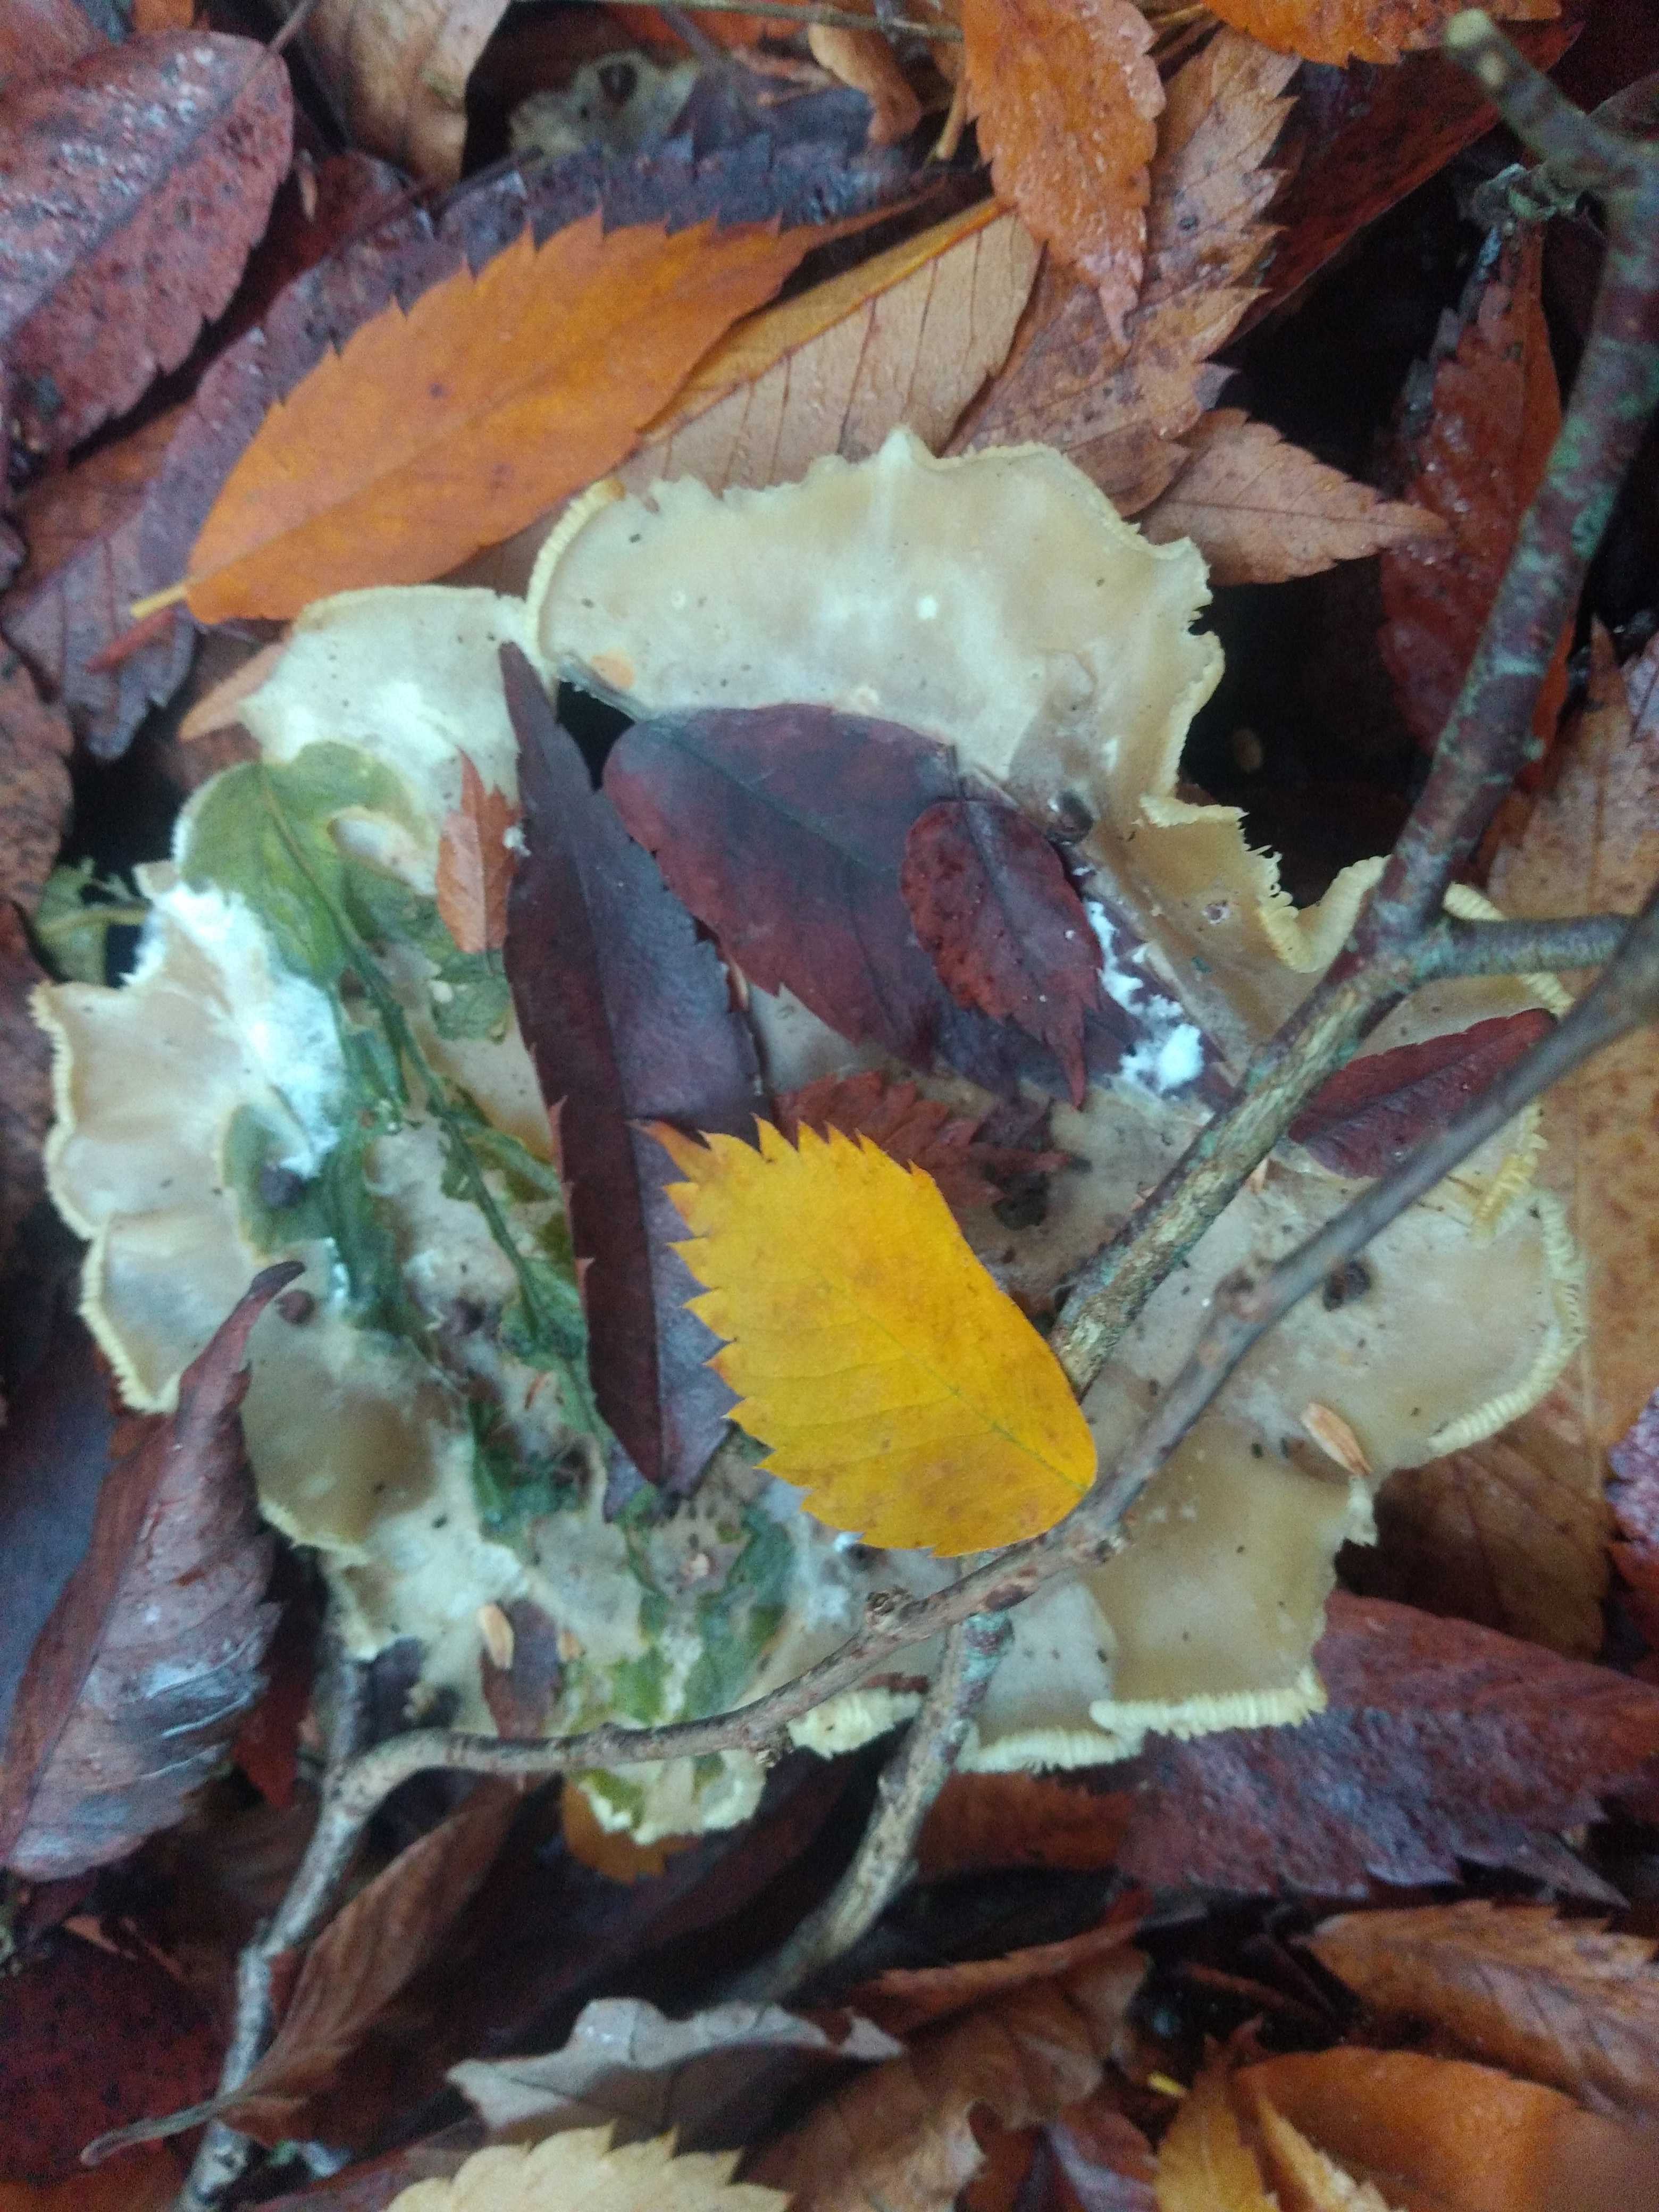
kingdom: Fungi
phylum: Basidiomycota
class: Agaricomycetes
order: Agaricales
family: Tricholomataceae
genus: Clitocybe
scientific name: Clitocybe nebularis
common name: tåge-tragthat
